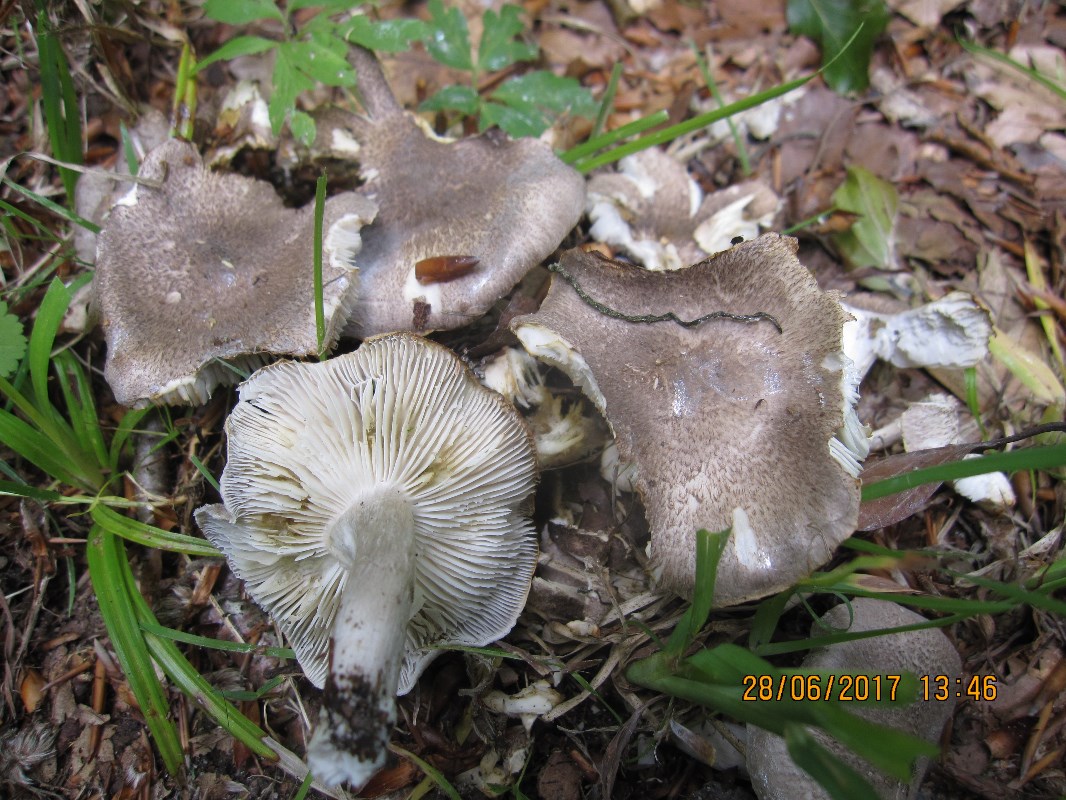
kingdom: Fungi
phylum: Basidiomycota
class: Agaricomycetes
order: Agaricales
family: Tricholomataceae
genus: Tricholoma
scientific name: Tricholoma scalpturatum
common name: gulplettet ridderhat
